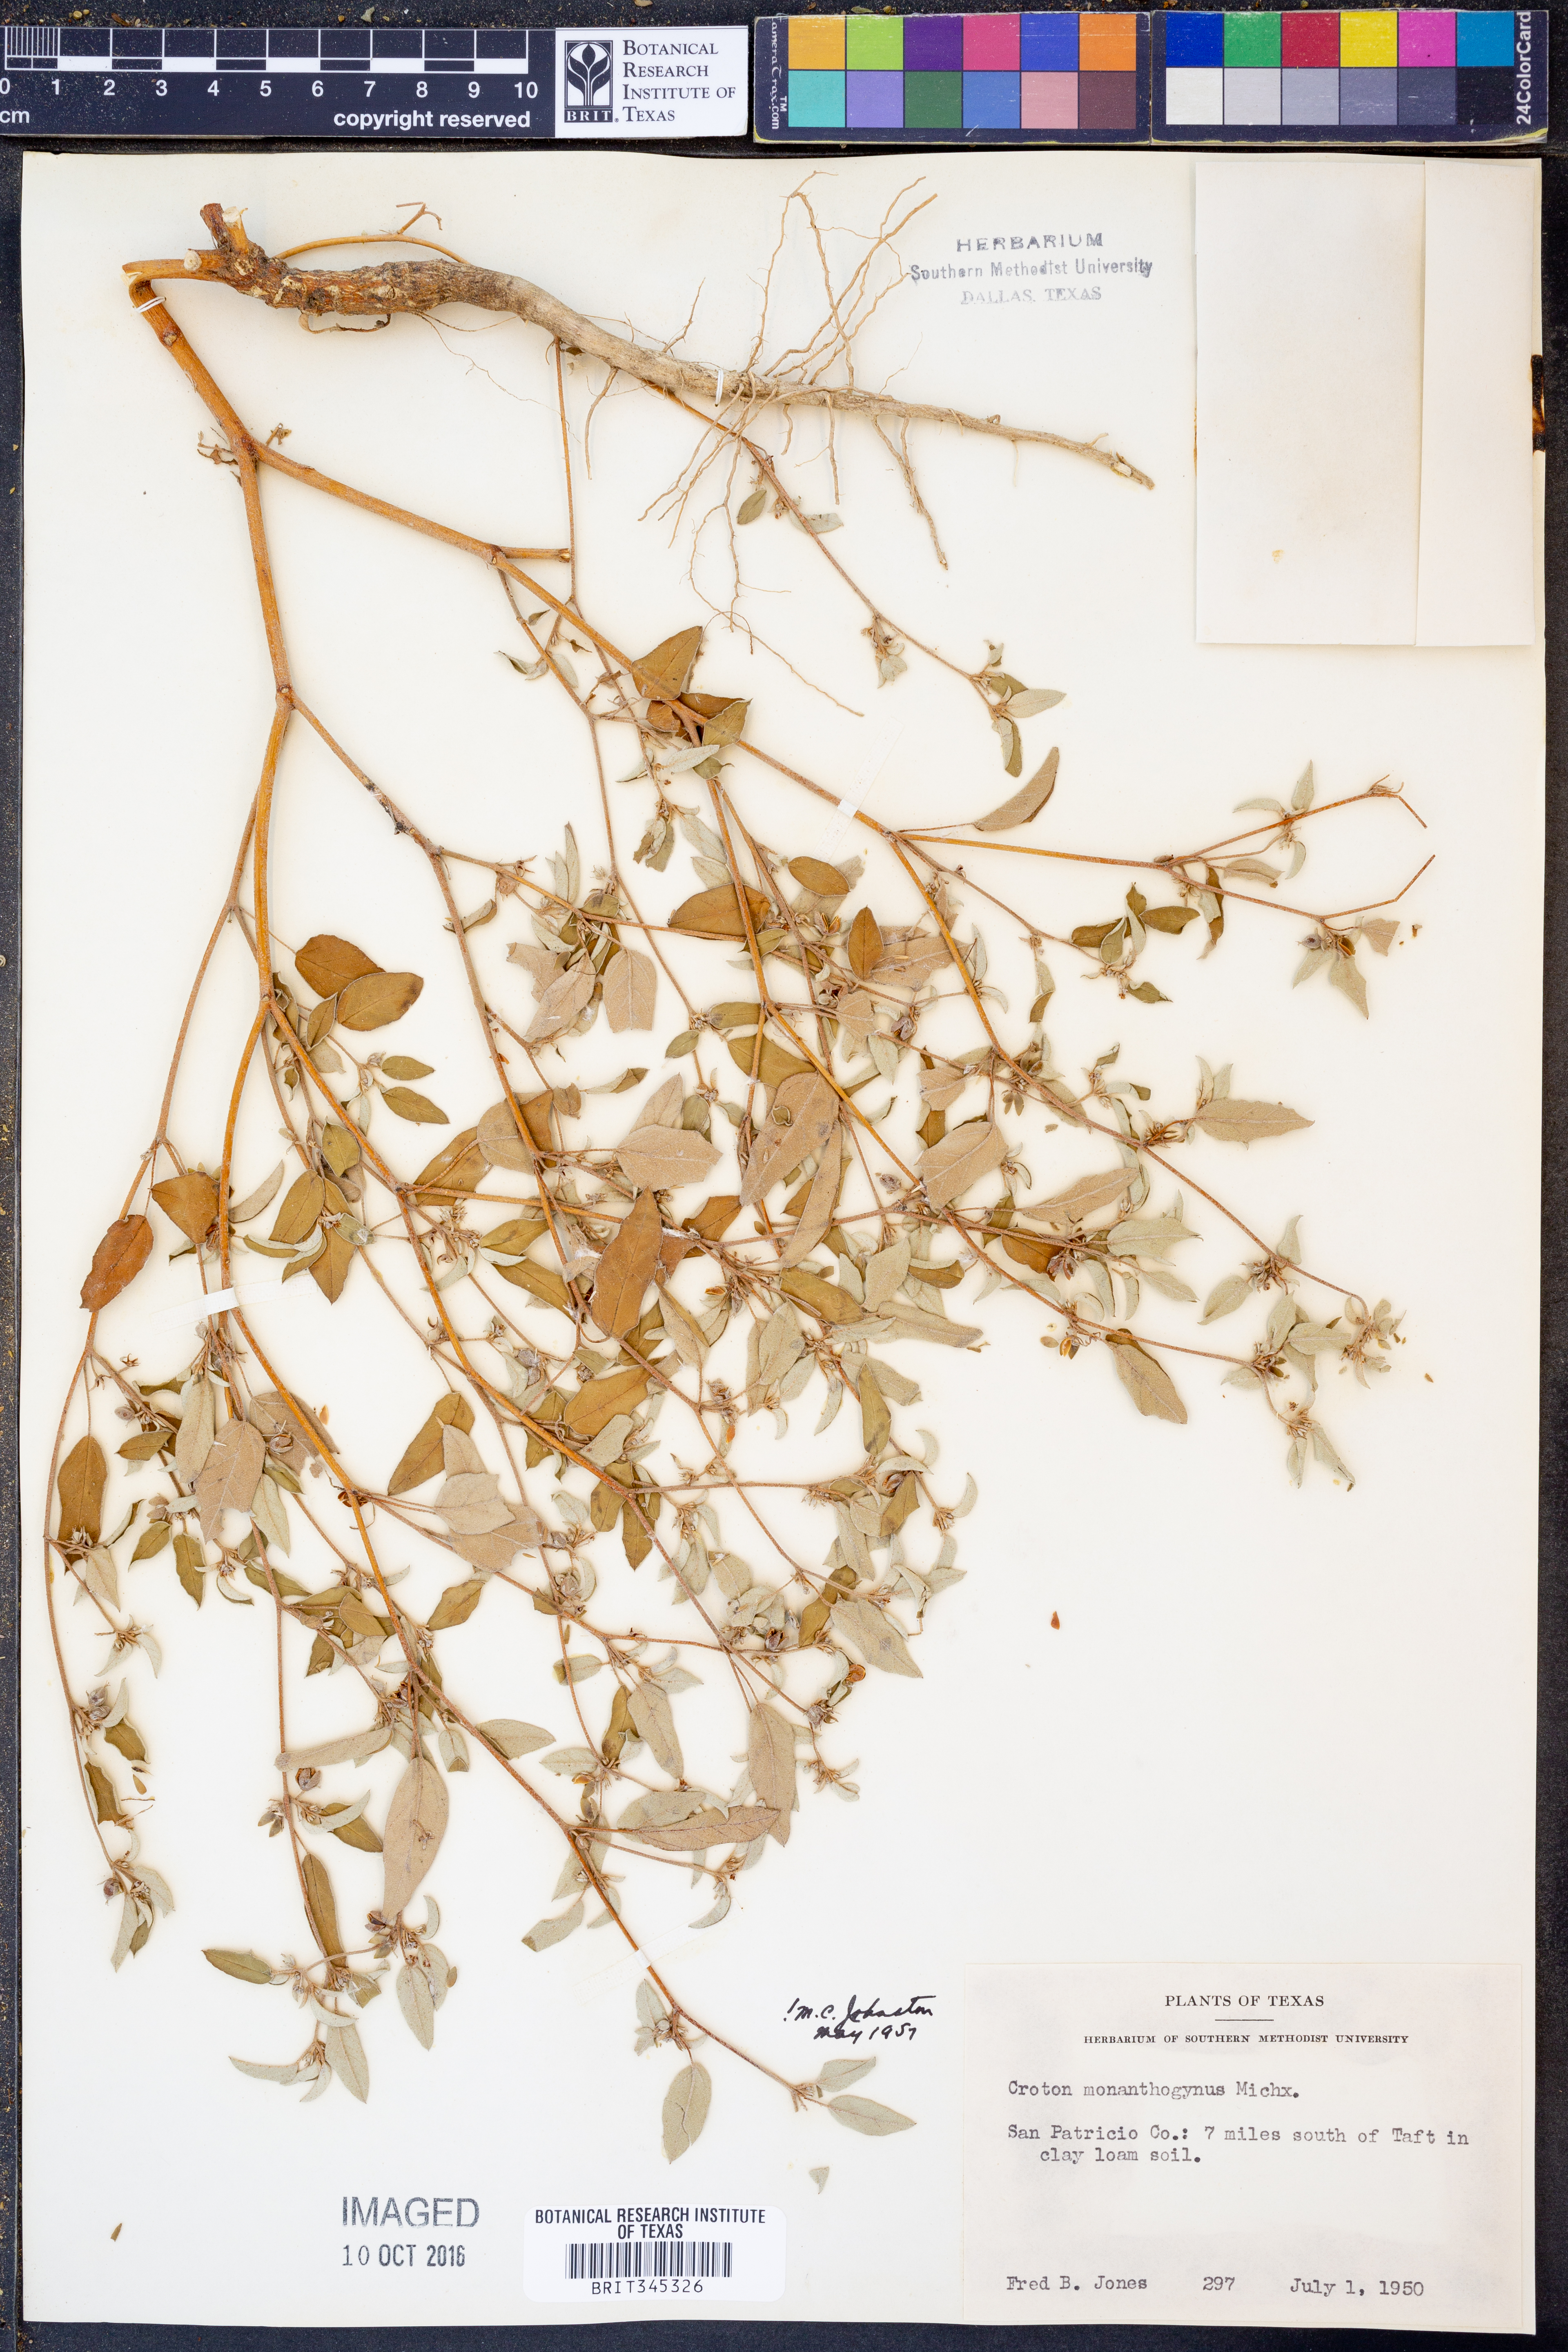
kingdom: Plantae
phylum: Tracheophyta
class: Magnoliopsida
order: Malpighiales
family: Euphorbiaceae
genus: Croton
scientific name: Croton monanthogynus
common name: One-seed croton
